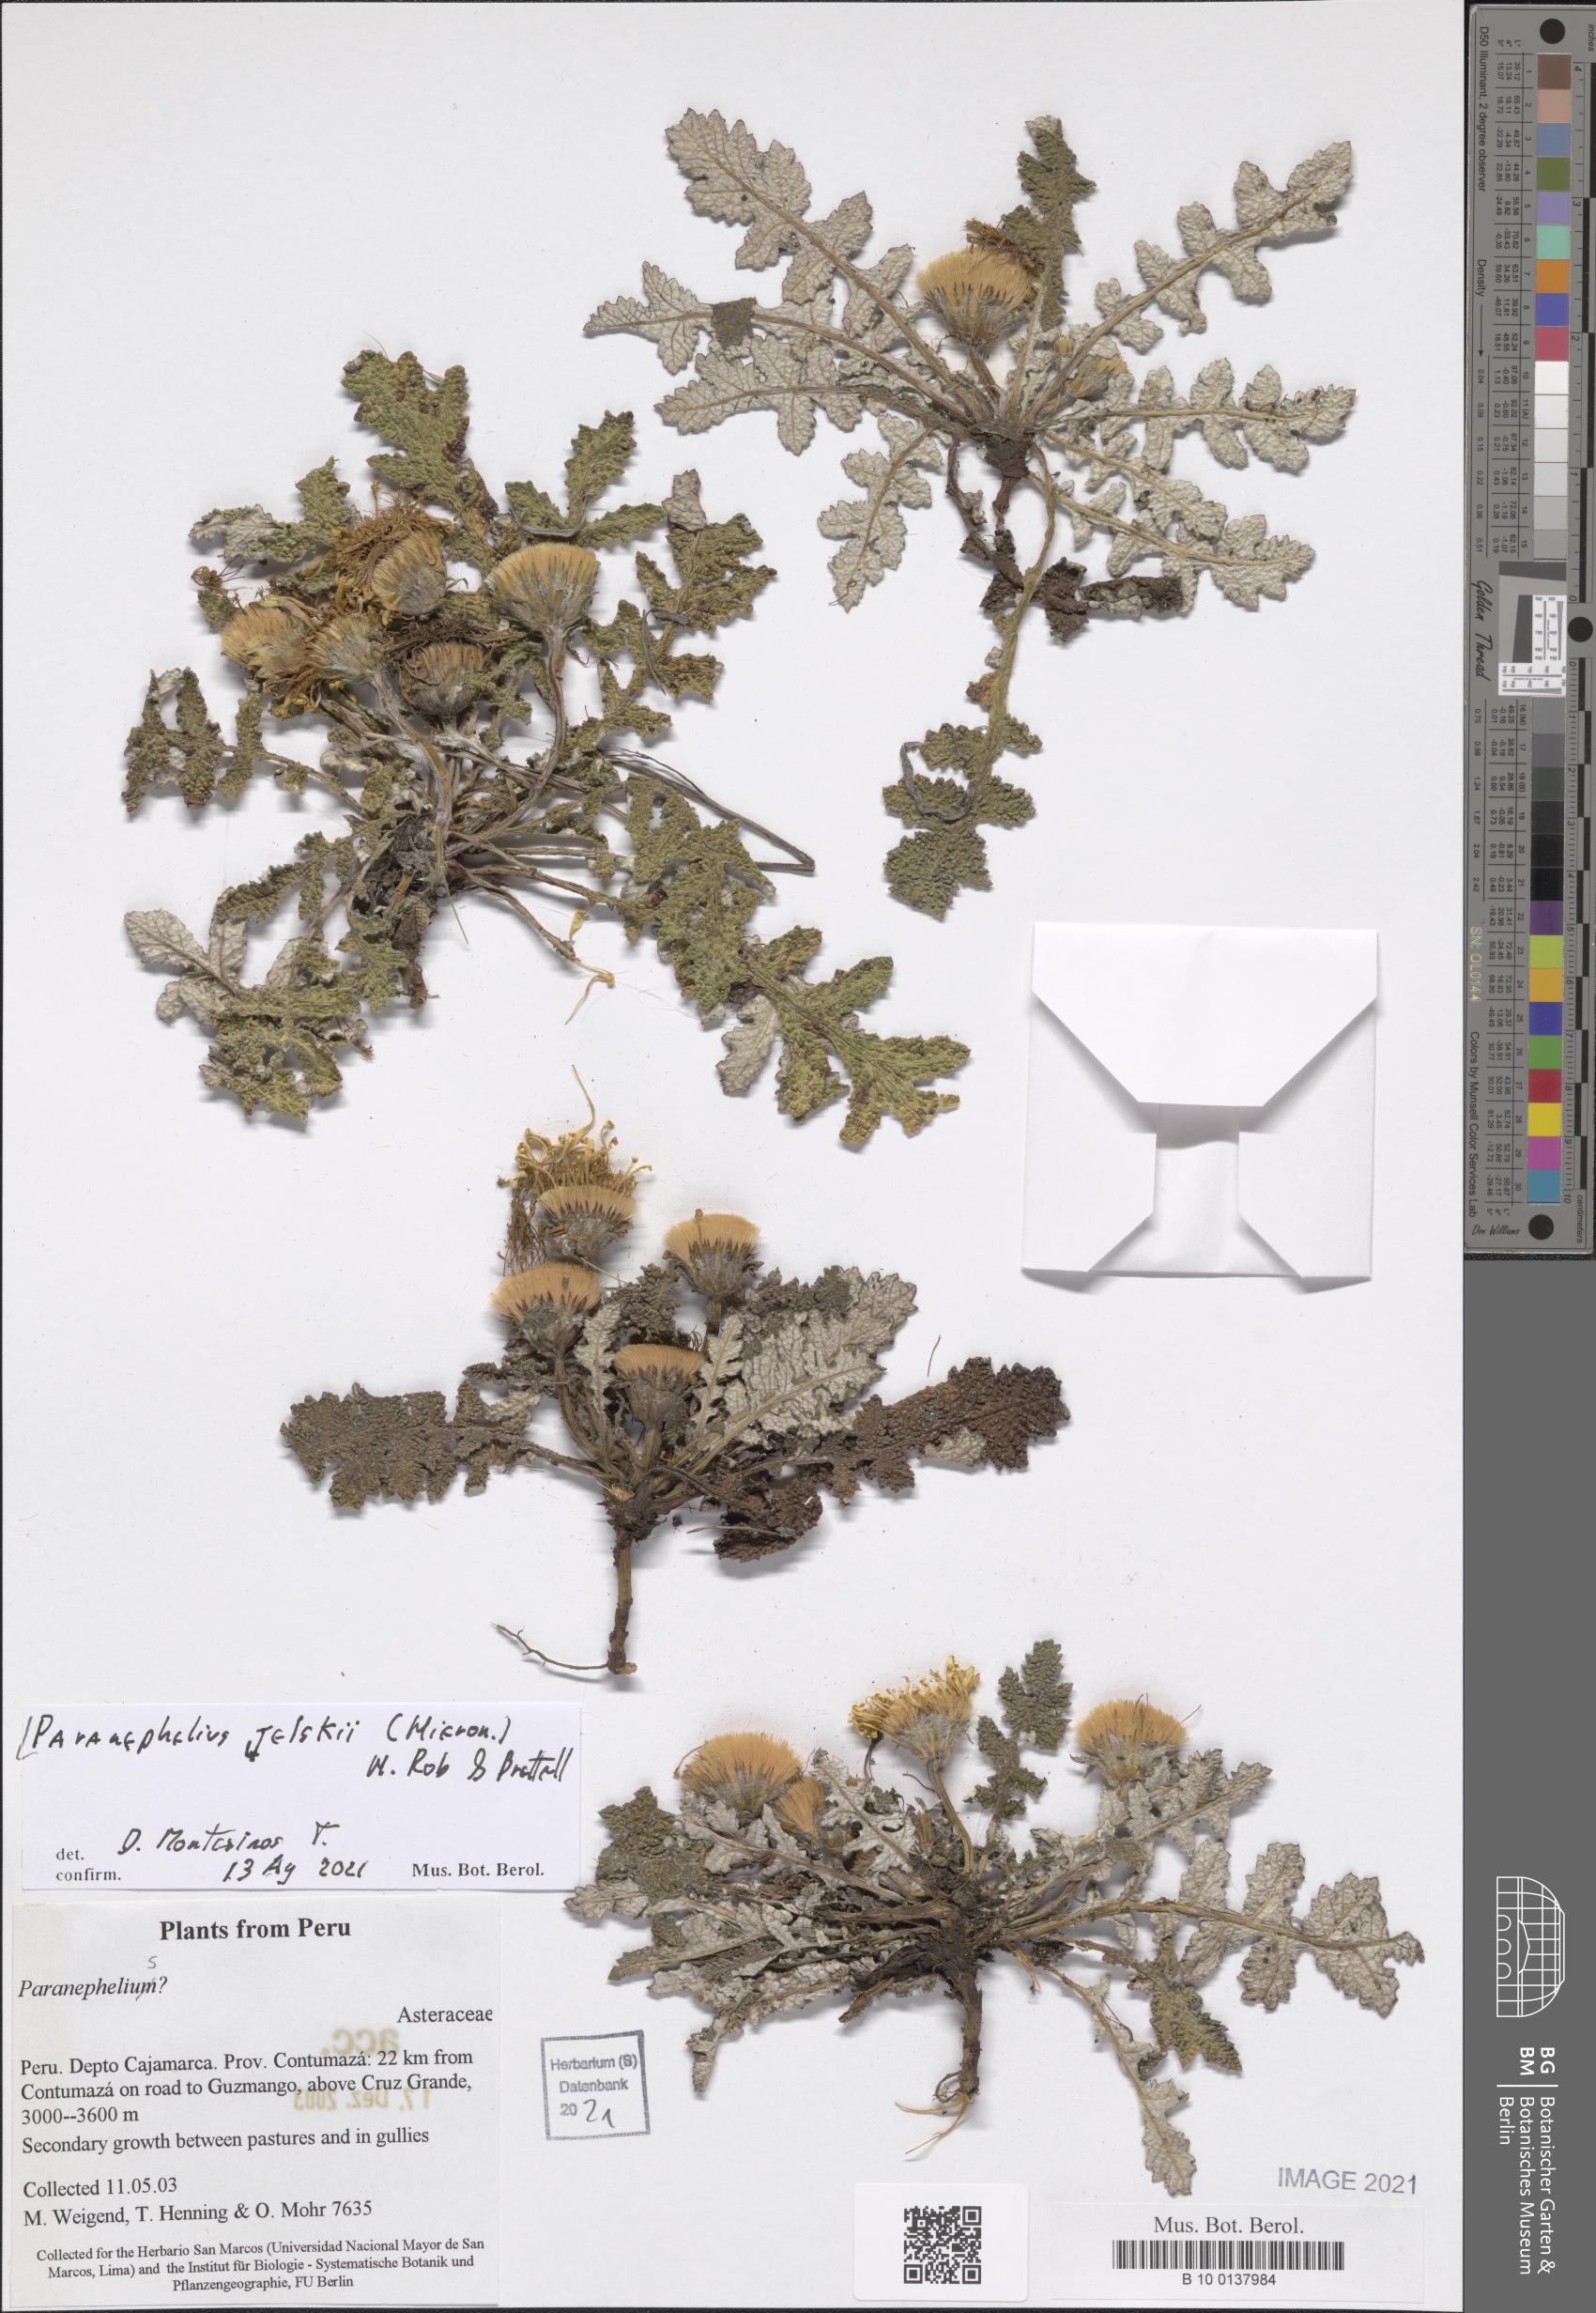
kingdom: Plantae
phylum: Tracheophyta
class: Magnoliopsida
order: Asterales
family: Asteraceae
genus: Paranephelius
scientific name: Paranephelius ovatus
